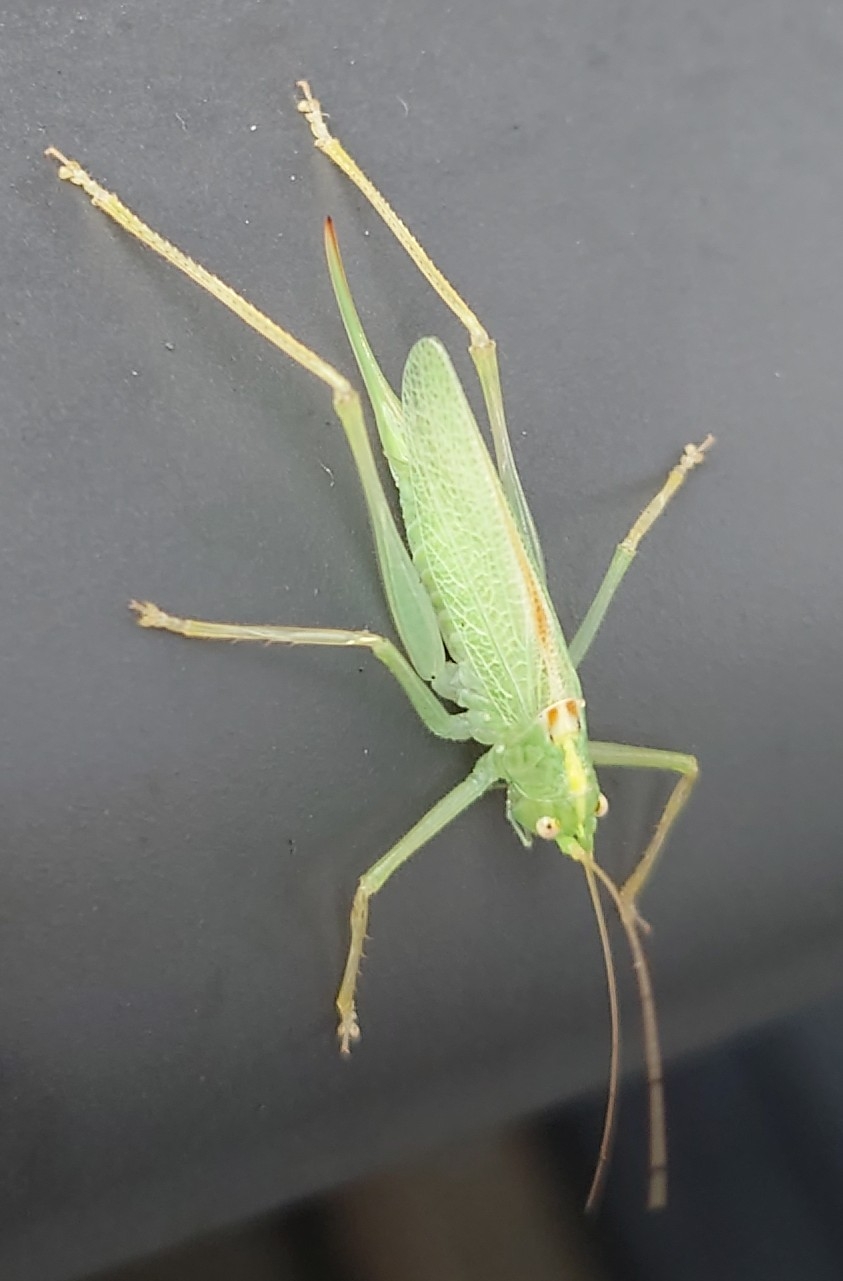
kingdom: Animalia
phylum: Arthropoda
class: Insecta
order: Orthoptera
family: Tettigoniidae
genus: Meconema
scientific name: Meconema thalassinum
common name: Egegræshoppe
